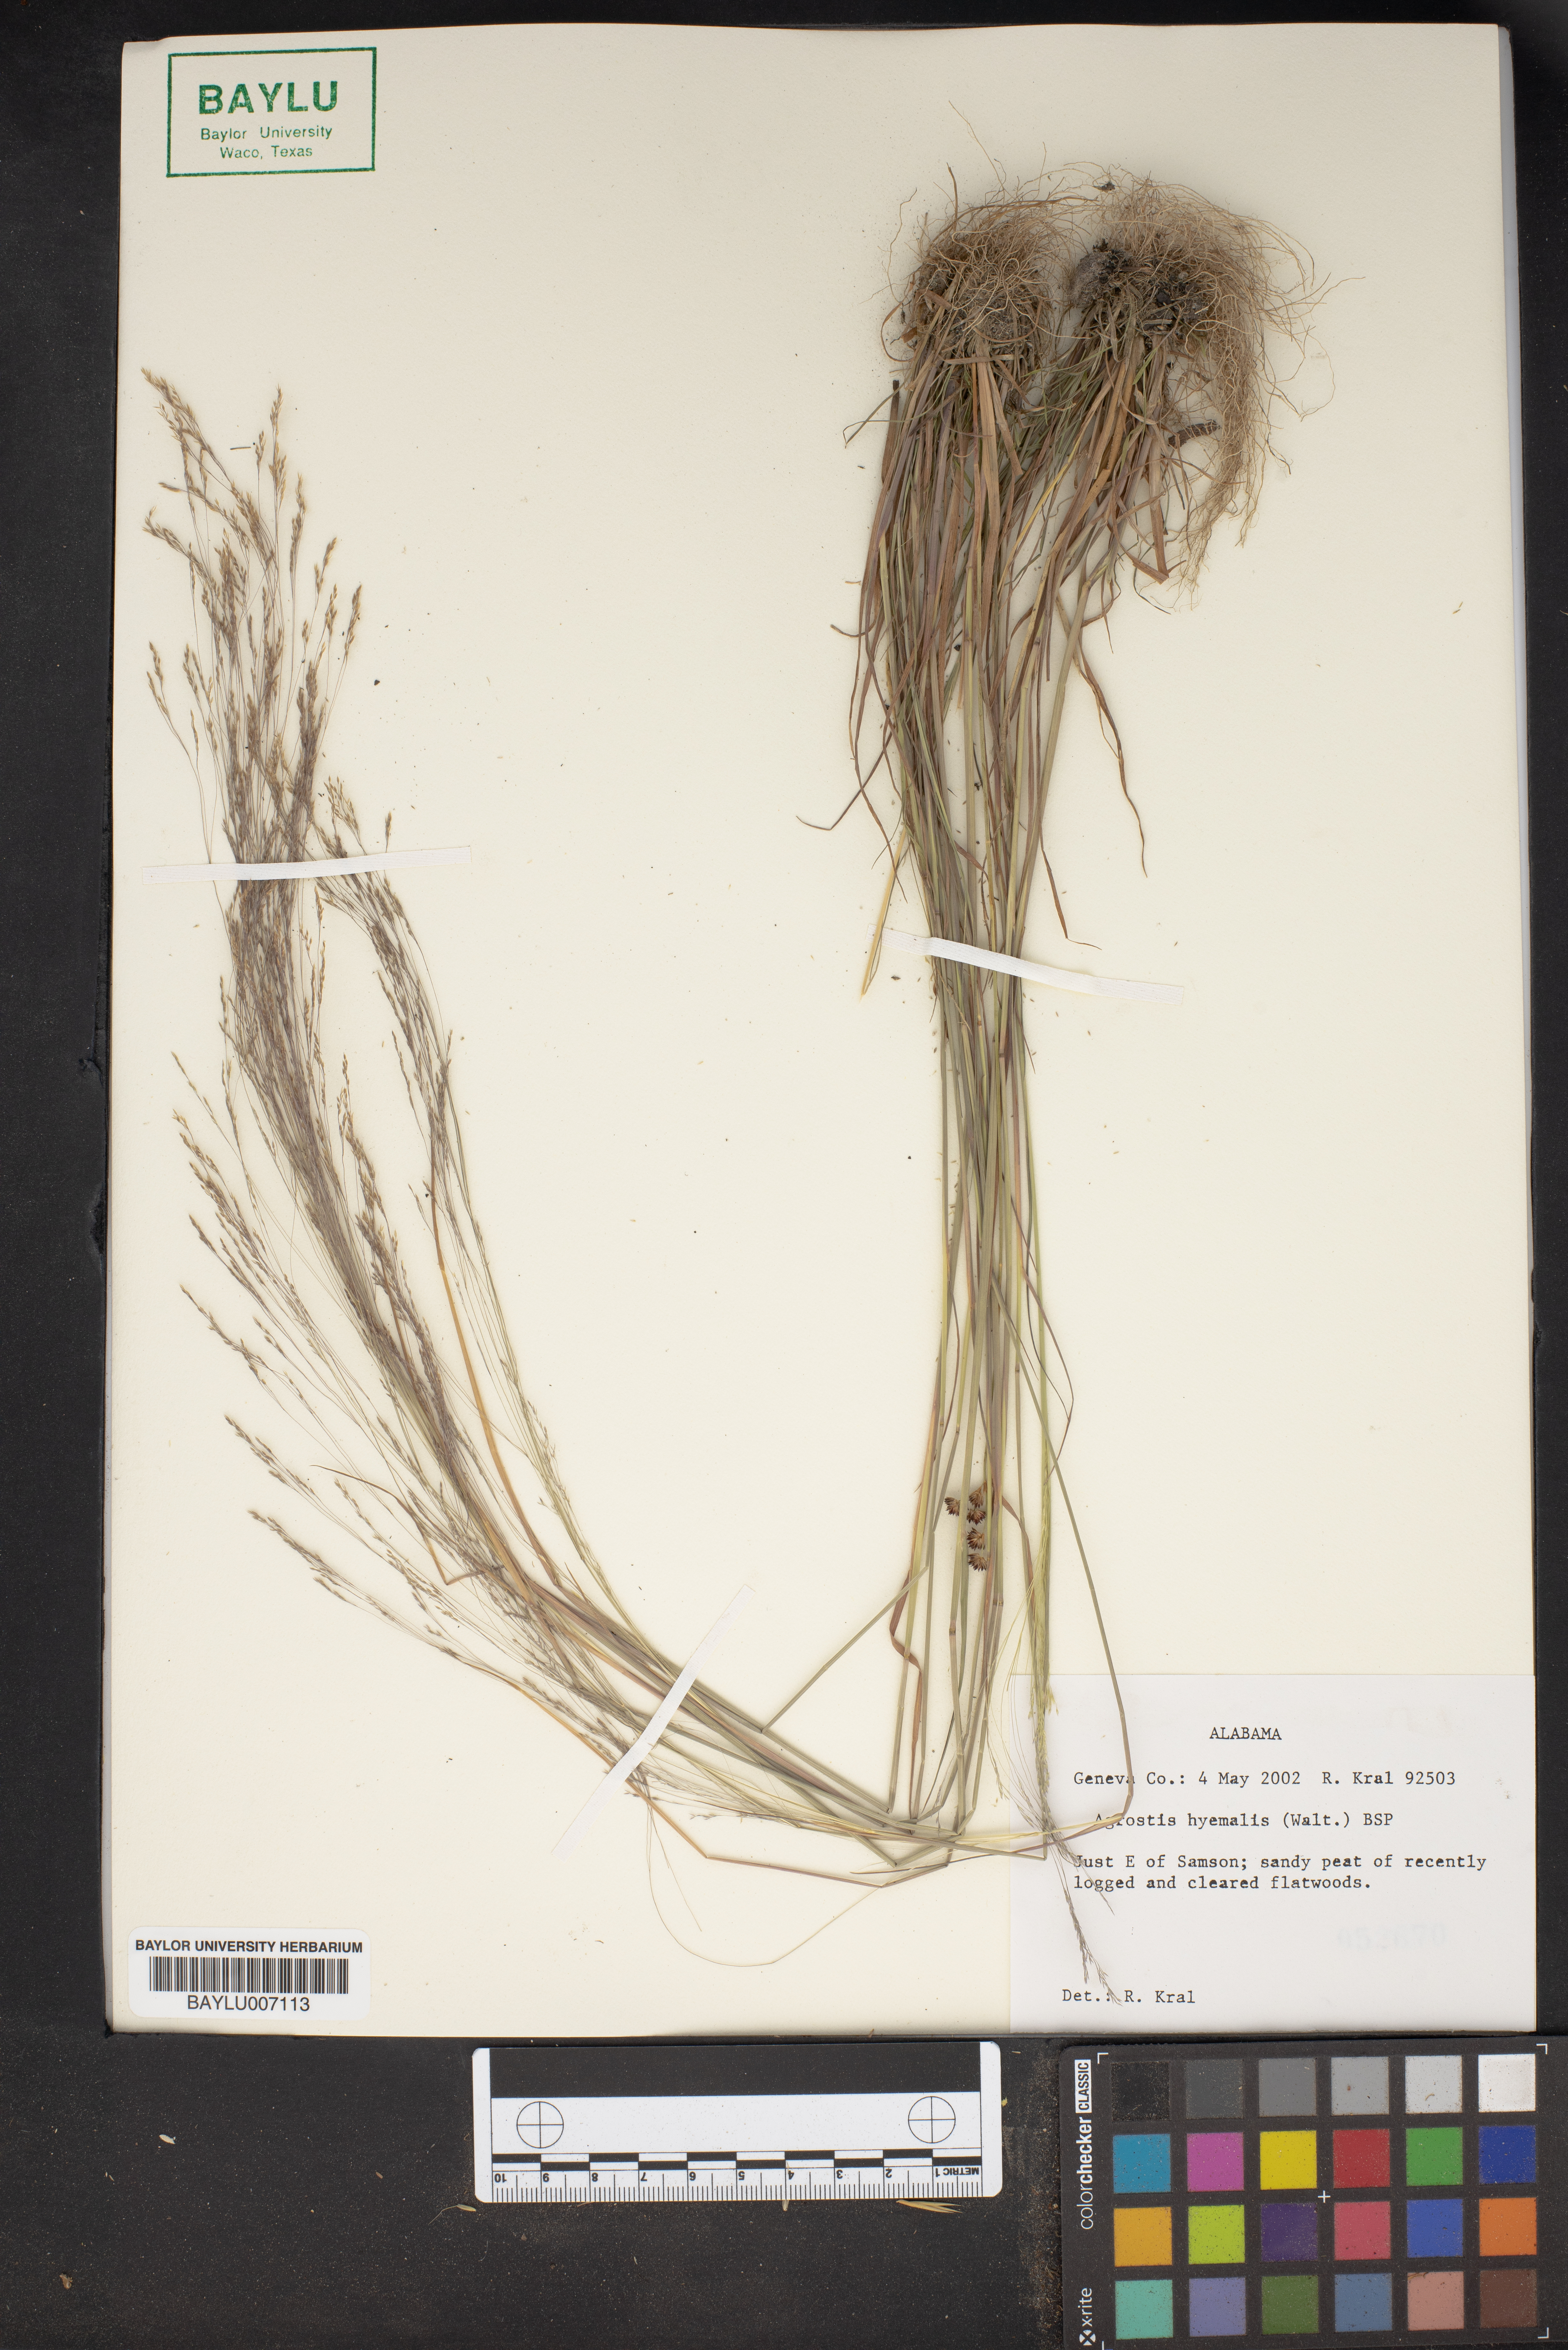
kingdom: Plantae
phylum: Tracheophyta
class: Liliopsida
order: Poales
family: Poaceae
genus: Agrostis
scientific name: Agrostis hyemalis
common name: Small bent
